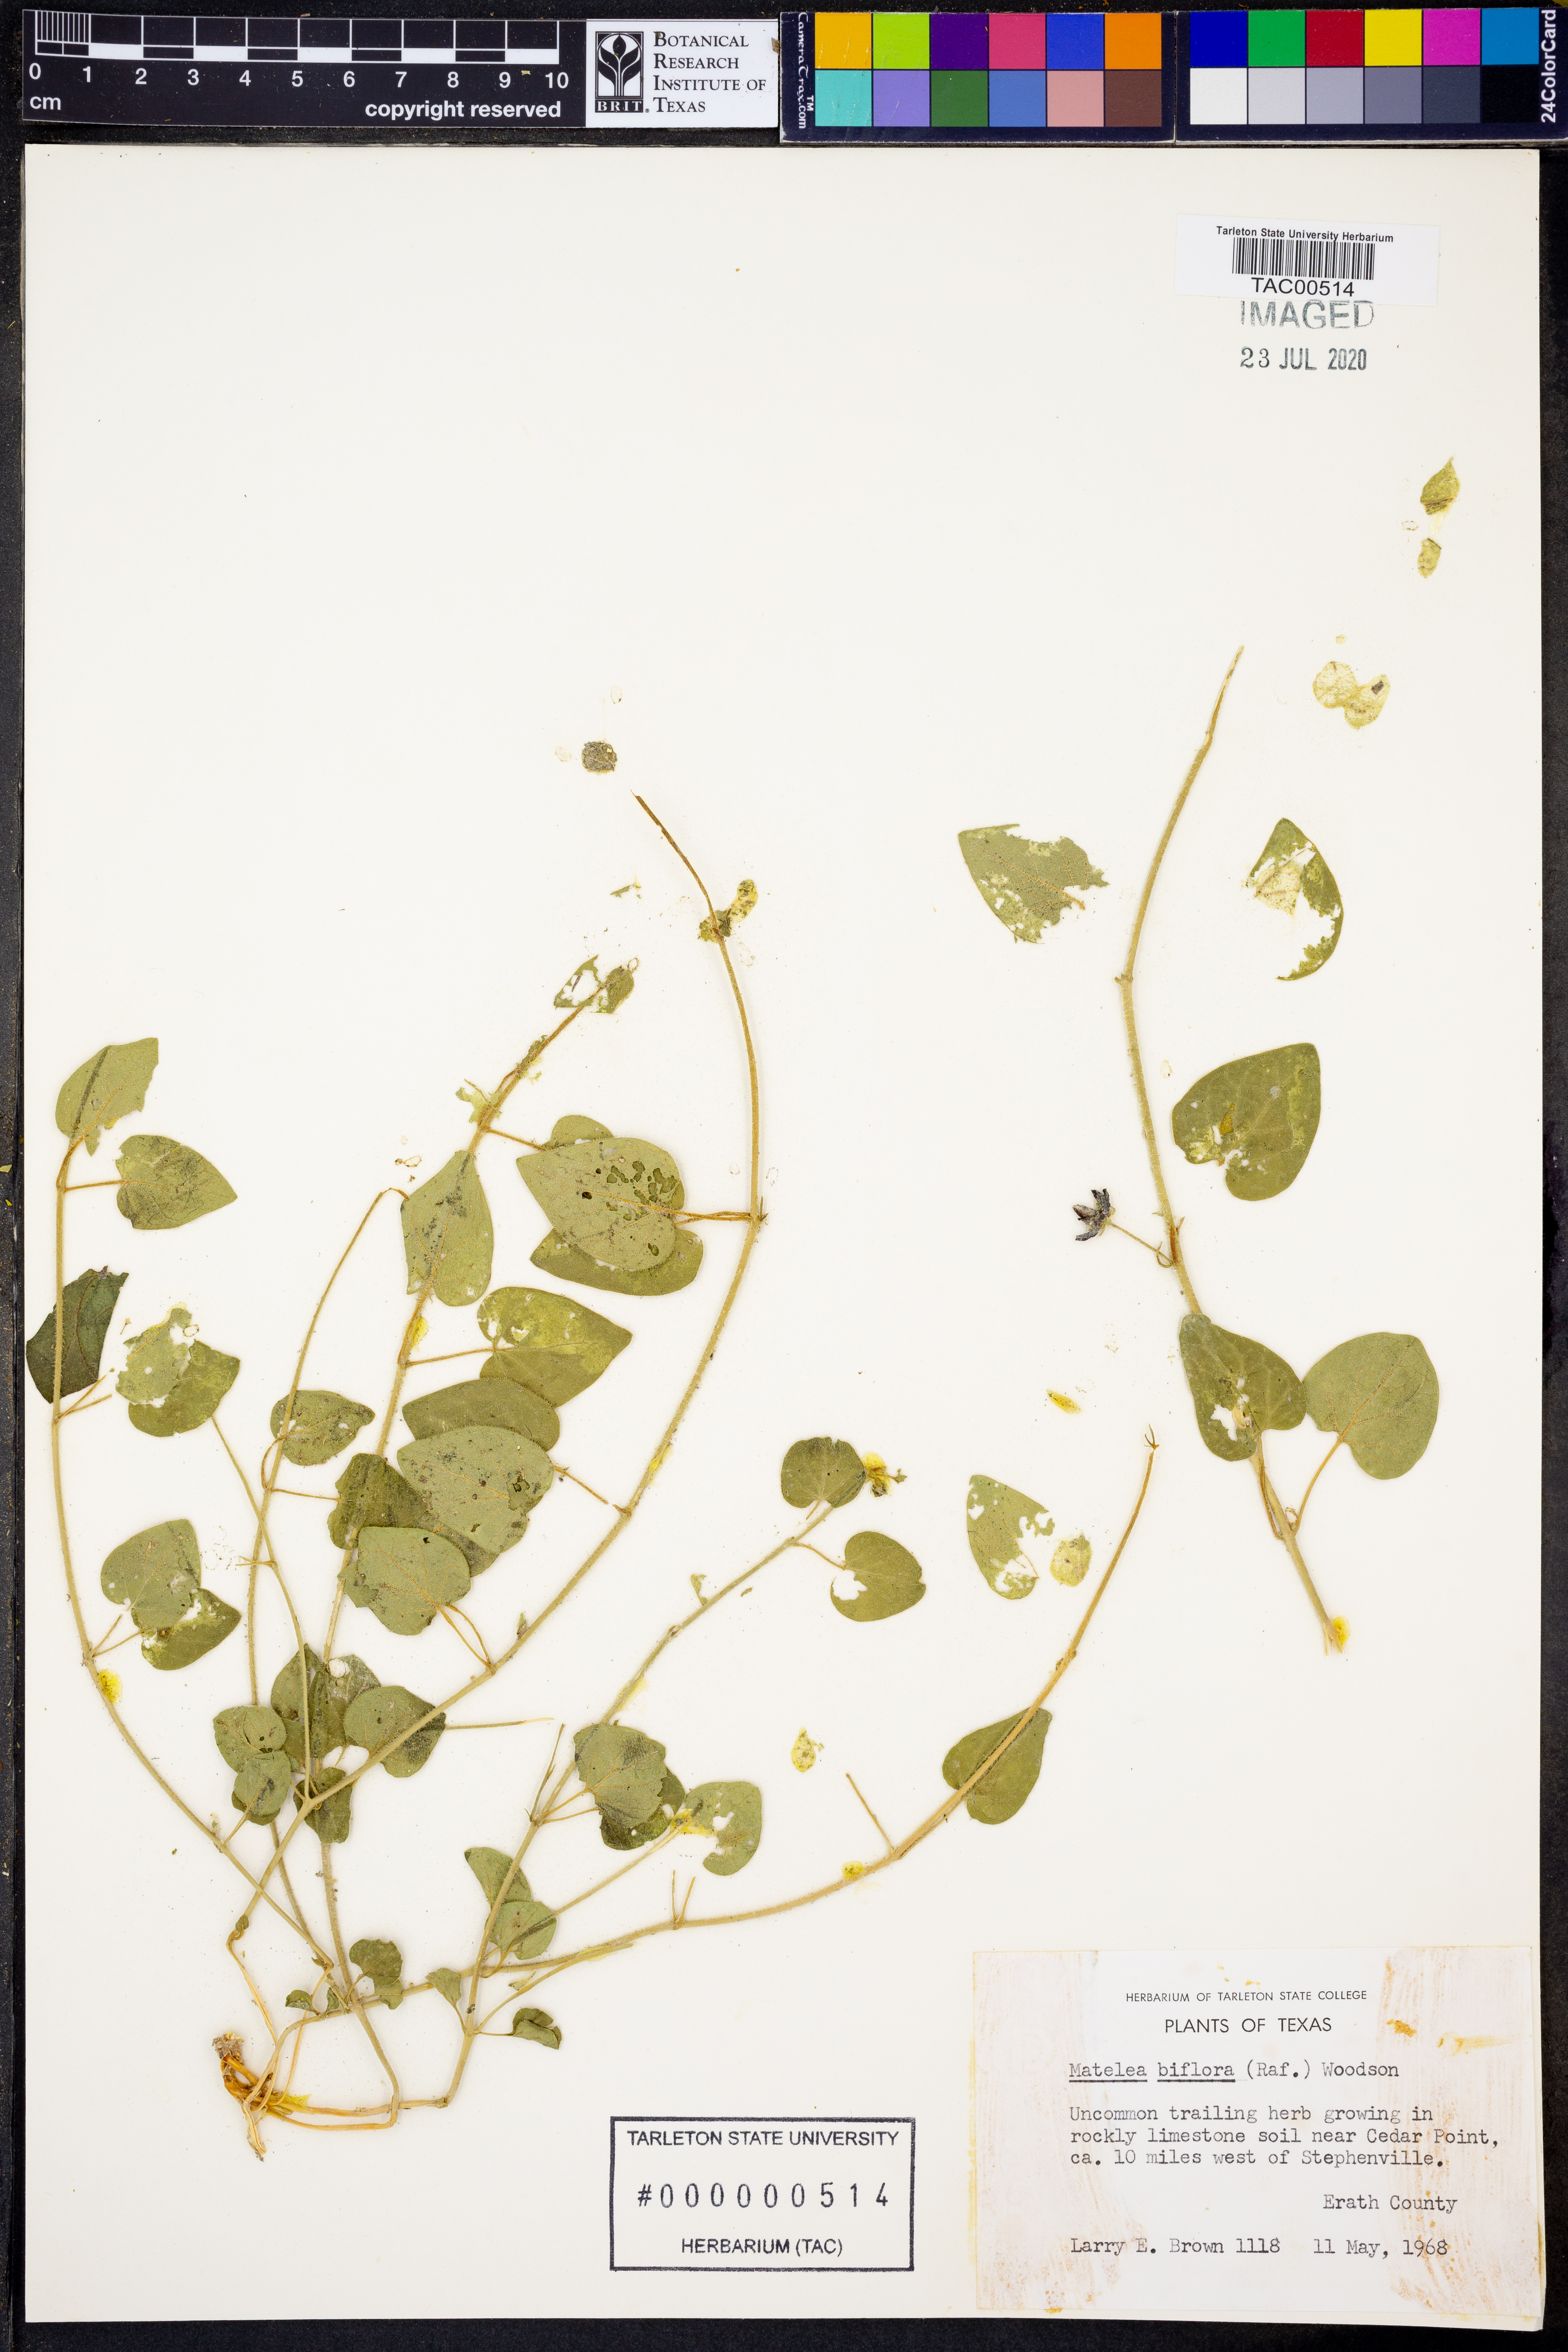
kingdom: Plantae
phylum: Tracheophyta
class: Magnoliopsida
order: Gentianales
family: Apocynaceae
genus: Chthamalia
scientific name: Chthamalia biflora
